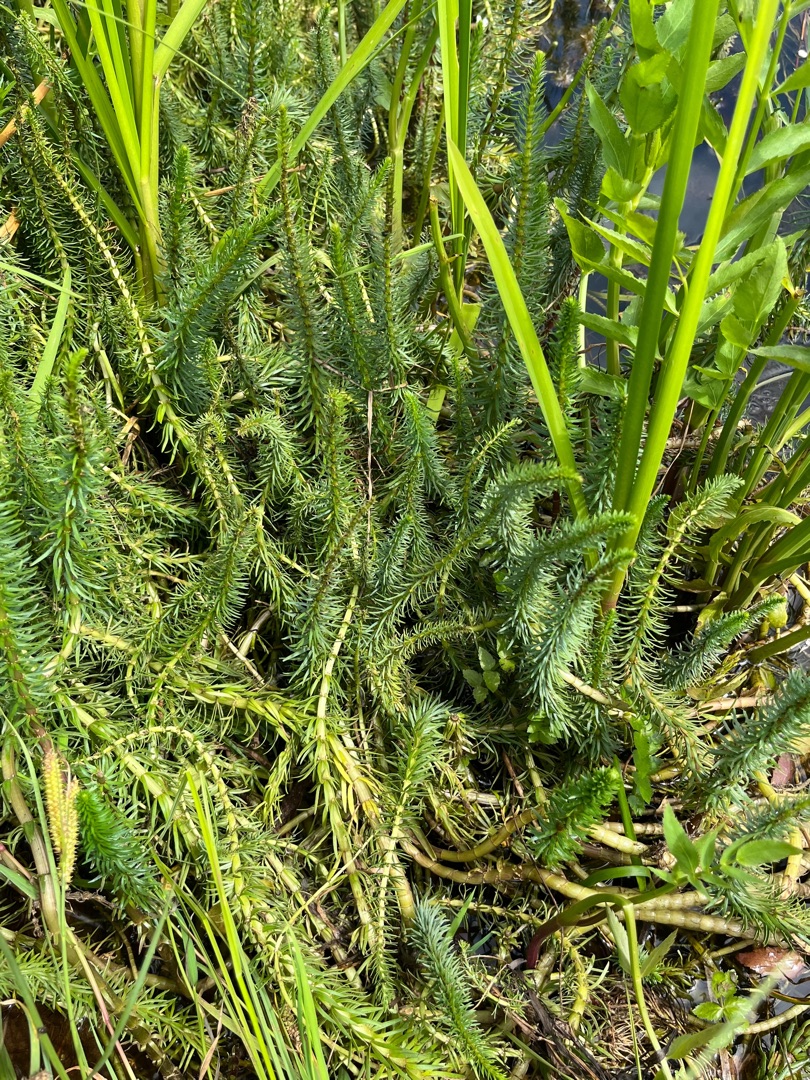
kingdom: Plantae
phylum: Tracheophyta
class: Magnoliopsida
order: Lamiales
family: Plantaginaceae
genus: Hippuris
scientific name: Hippuris vulgaris
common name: Vandspir
